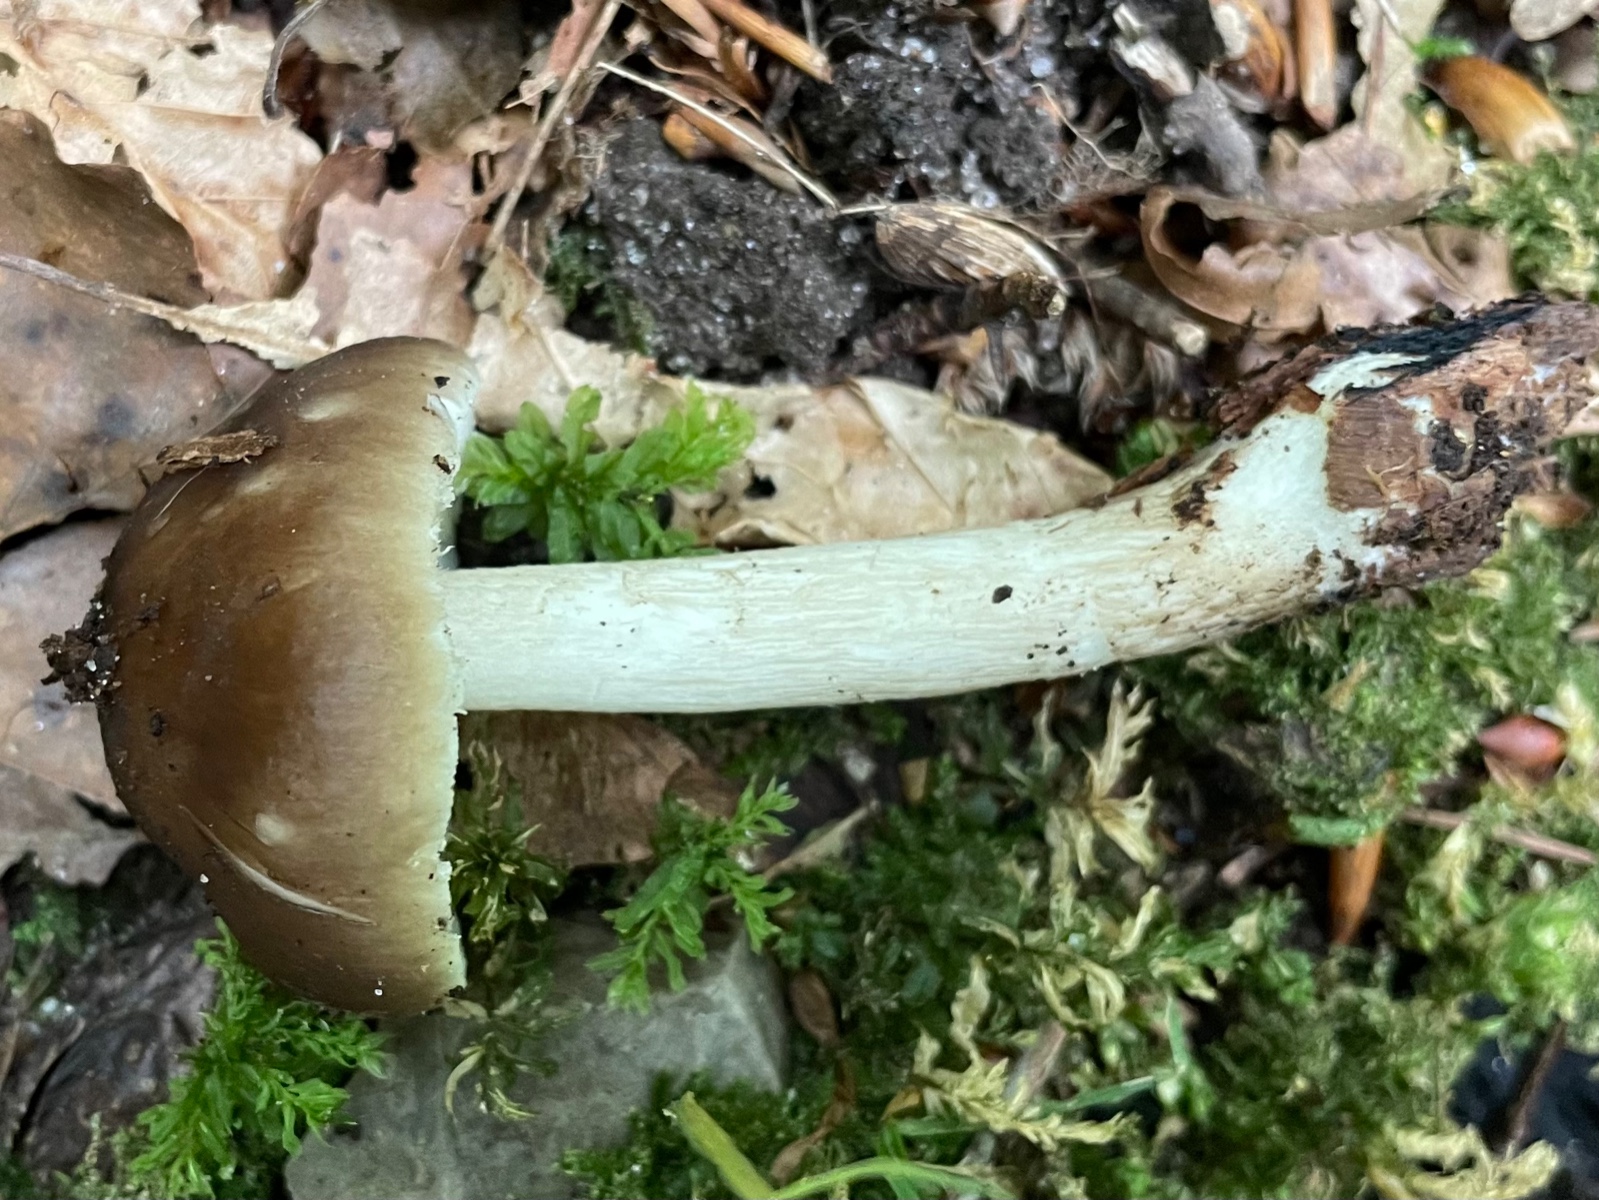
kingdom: Fungi
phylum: Basidiomycota
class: Agaricomycetes
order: Agaricales
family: Pluteaceae
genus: Pluteus
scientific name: Pluteus cervinus
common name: sodfarvet skærmhat
